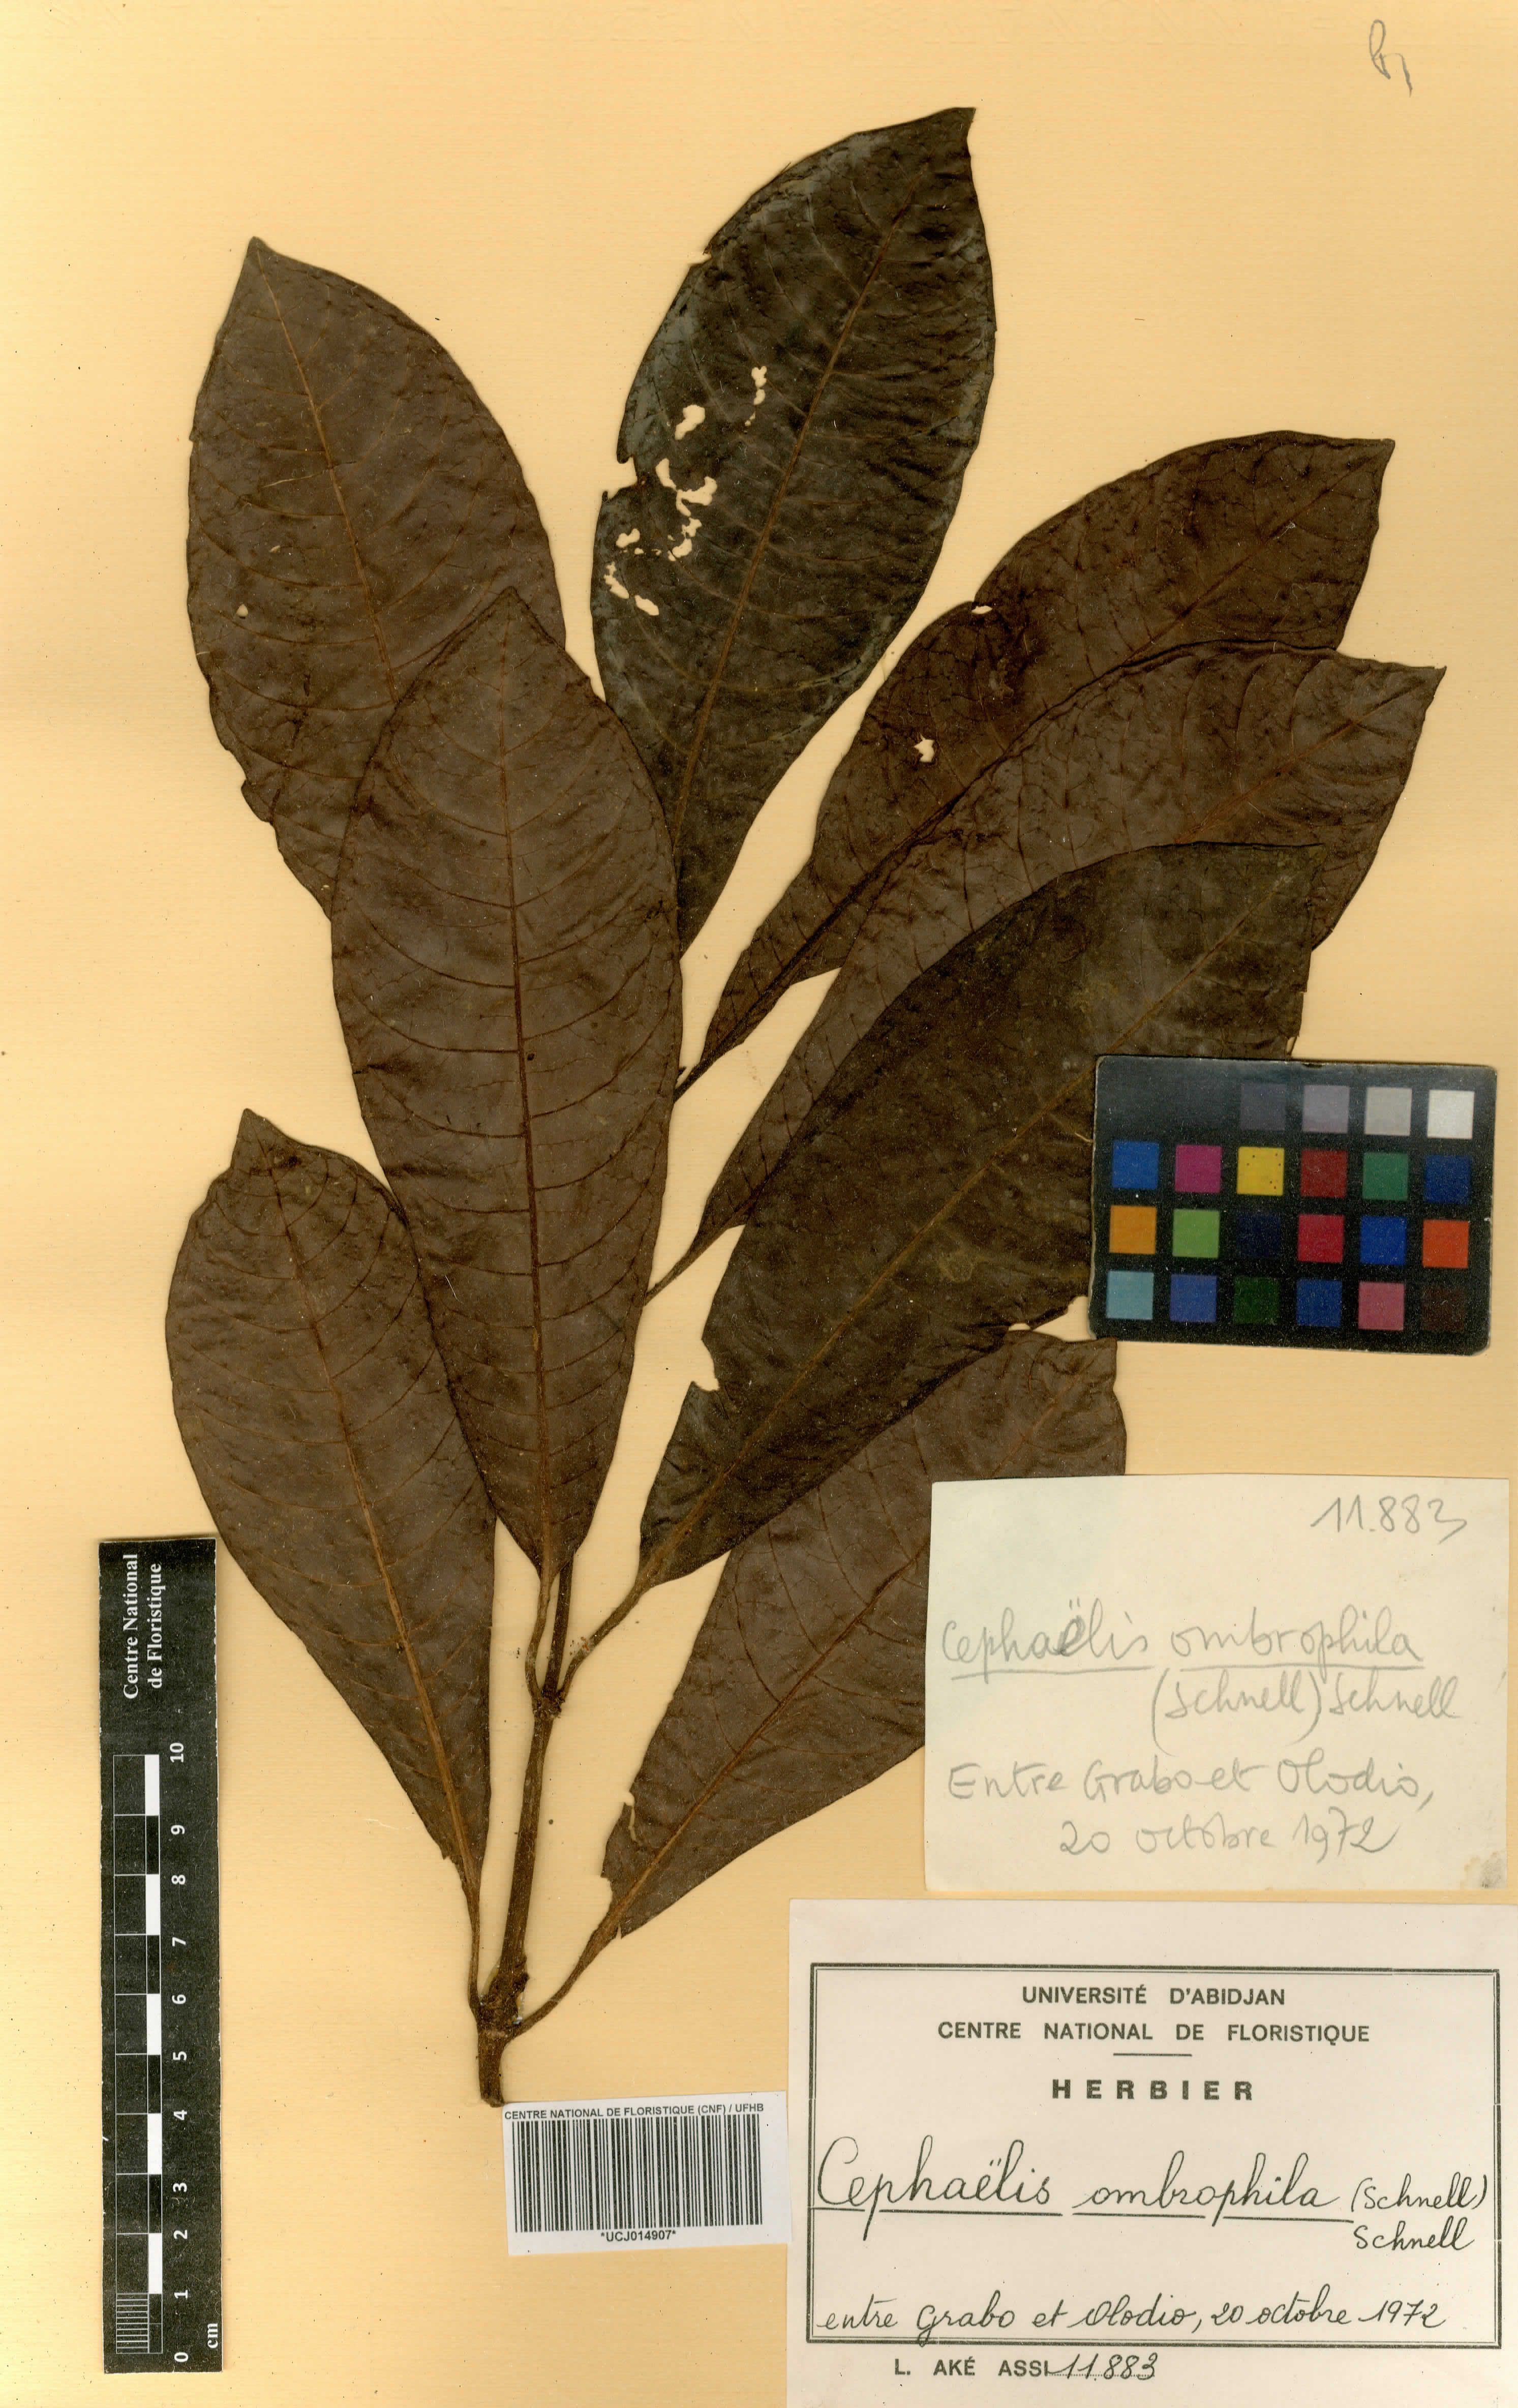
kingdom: Plantae
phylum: Tracheophyta
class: Magnoliopsida
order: Gentianales
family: Rubiaceae
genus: Psychotria
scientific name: Psychotria ombrophila
